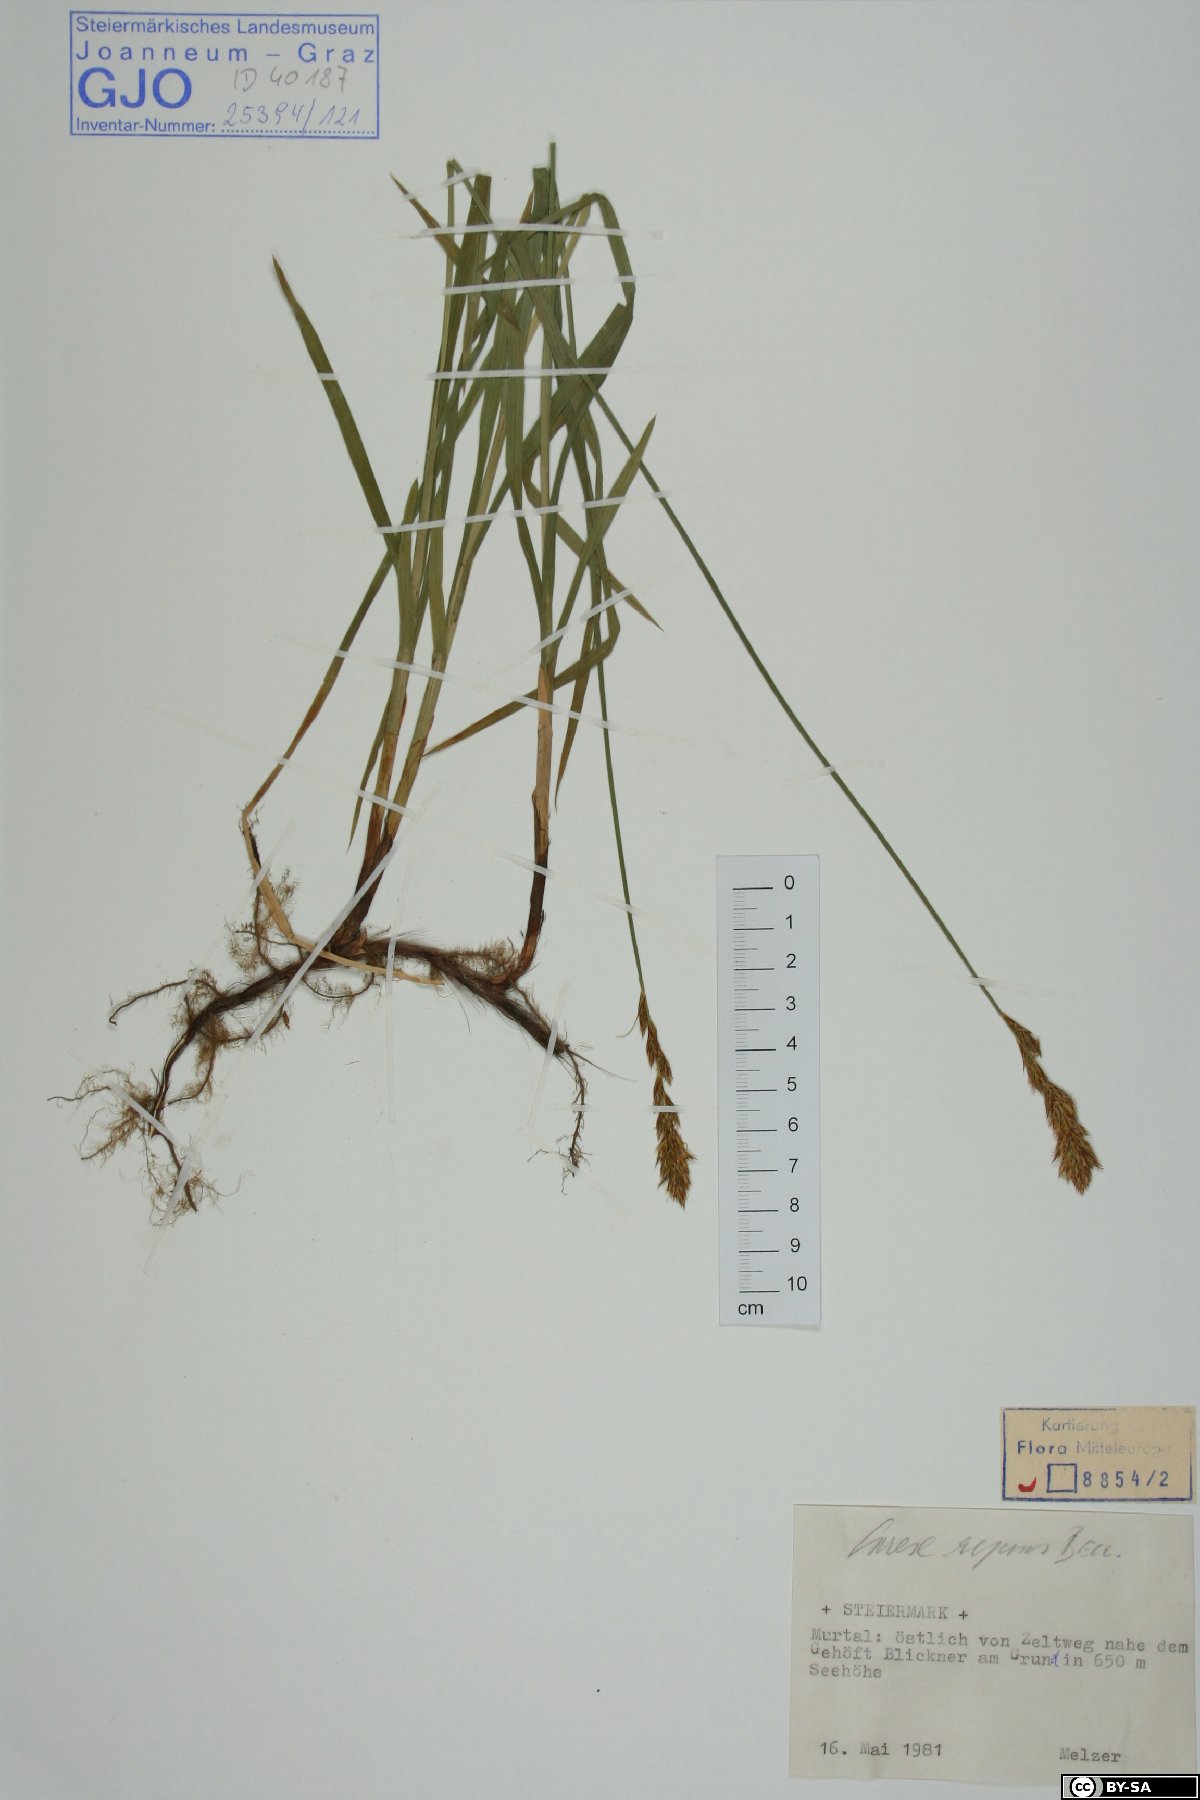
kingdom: Plantae
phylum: Tracheophyta
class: Liliopsida
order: Poales
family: Cyperaceae
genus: Carex
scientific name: Carex repens
